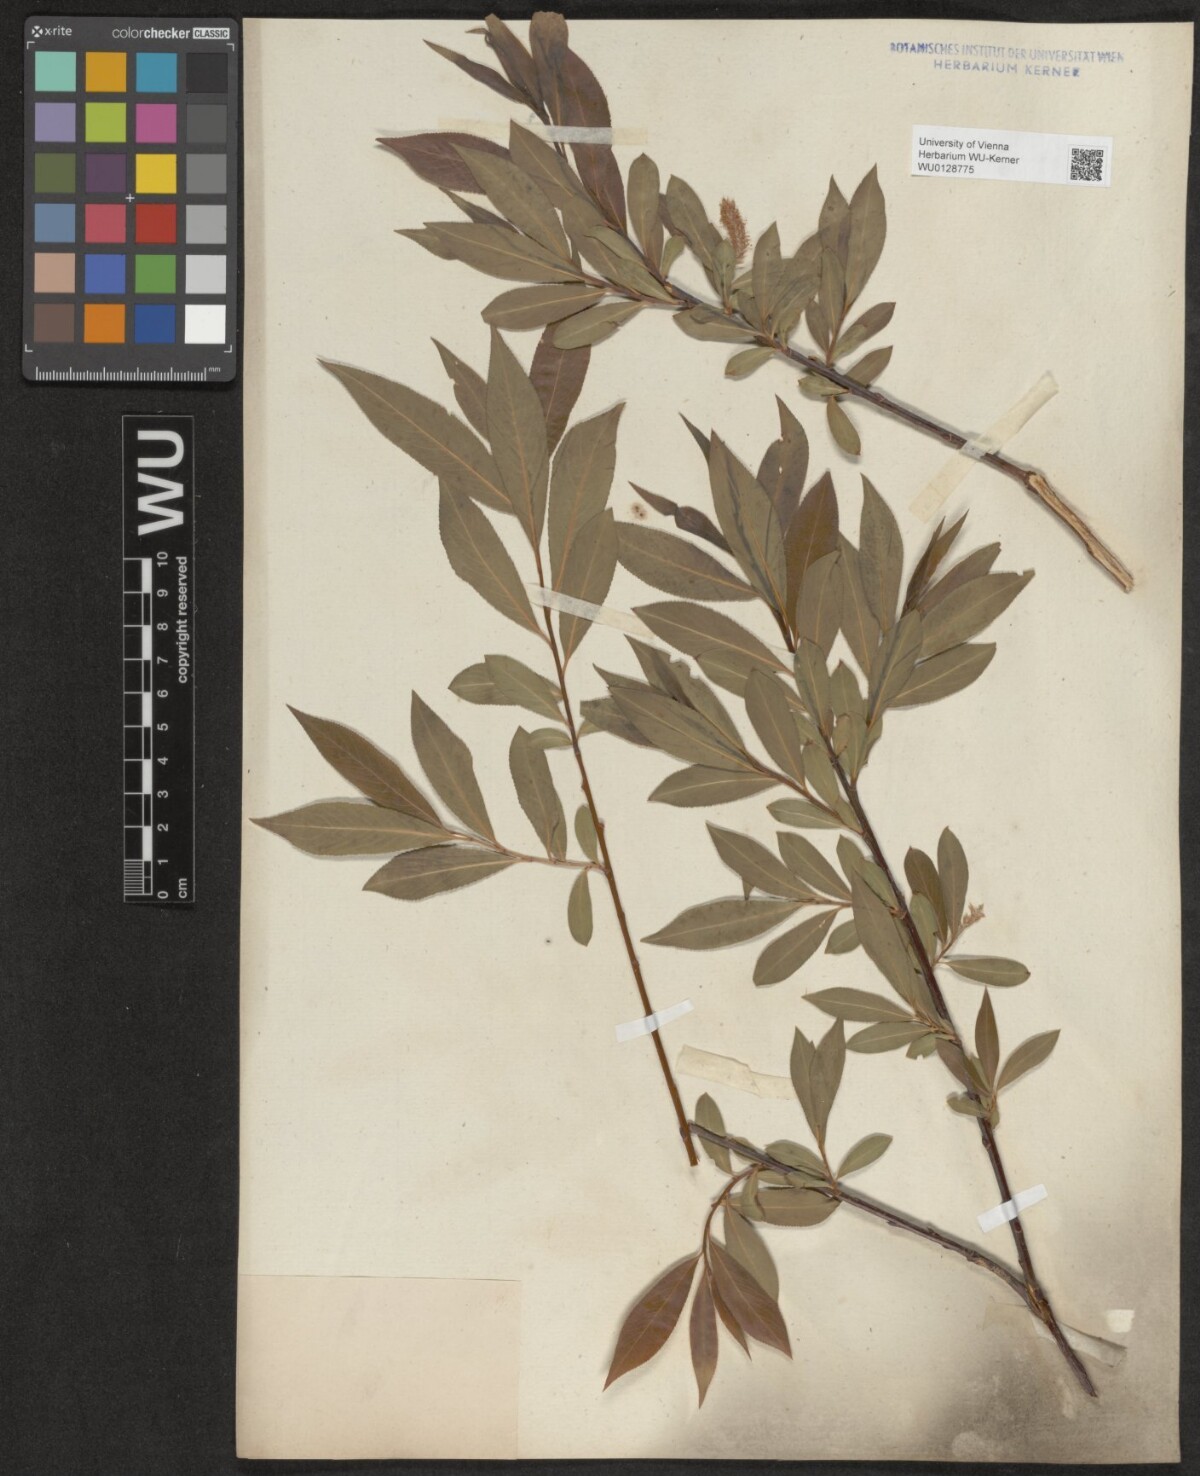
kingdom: Plantae
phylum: Tracheophyta
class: Magnoliopsida
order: Malpighiales
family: Salicaceae
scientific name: Salicaceae
